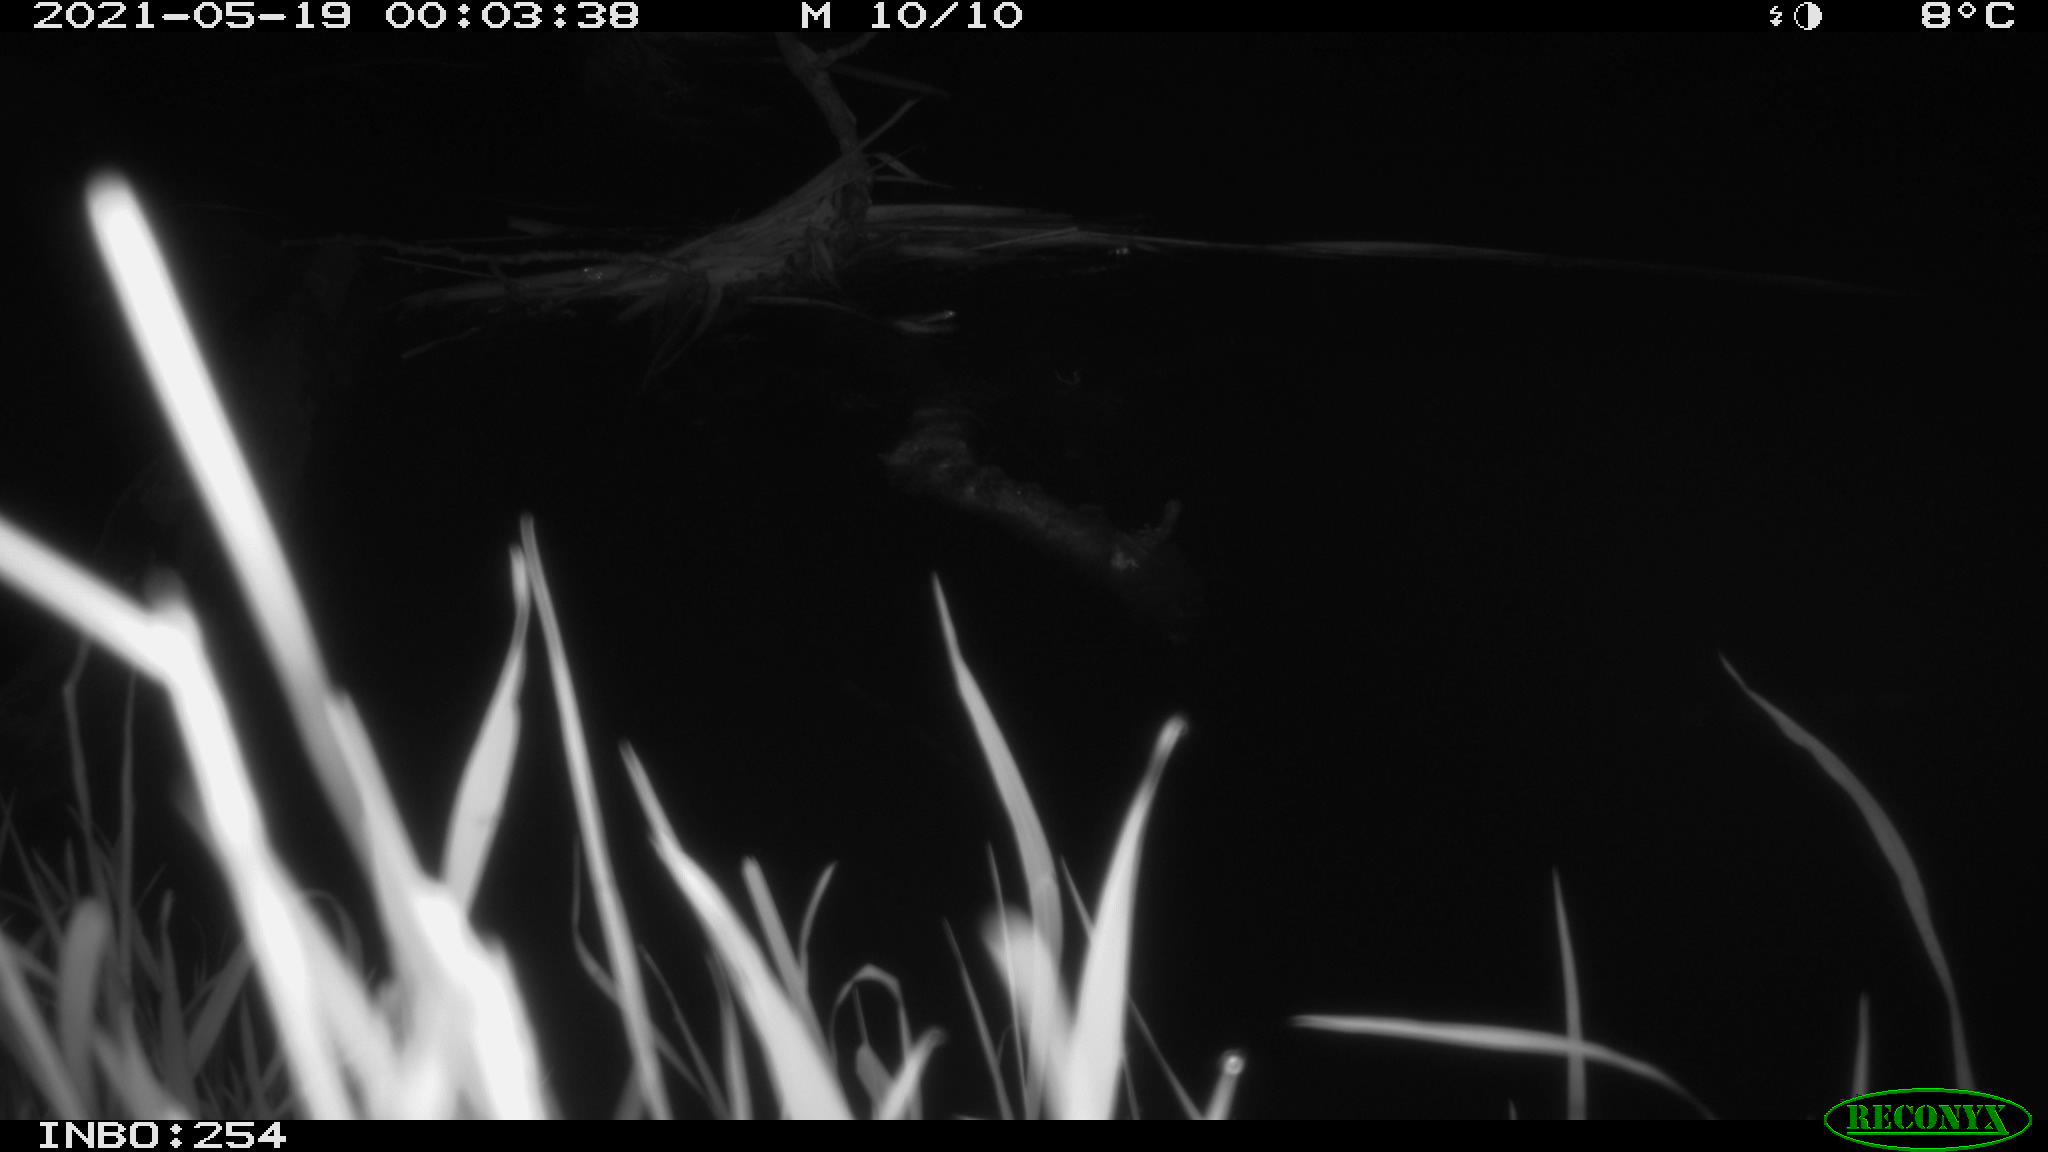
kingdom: Animalia
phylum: Chordata
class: Aves
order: Anseriformes
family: Anatidae
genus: Anas
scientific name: Anas
